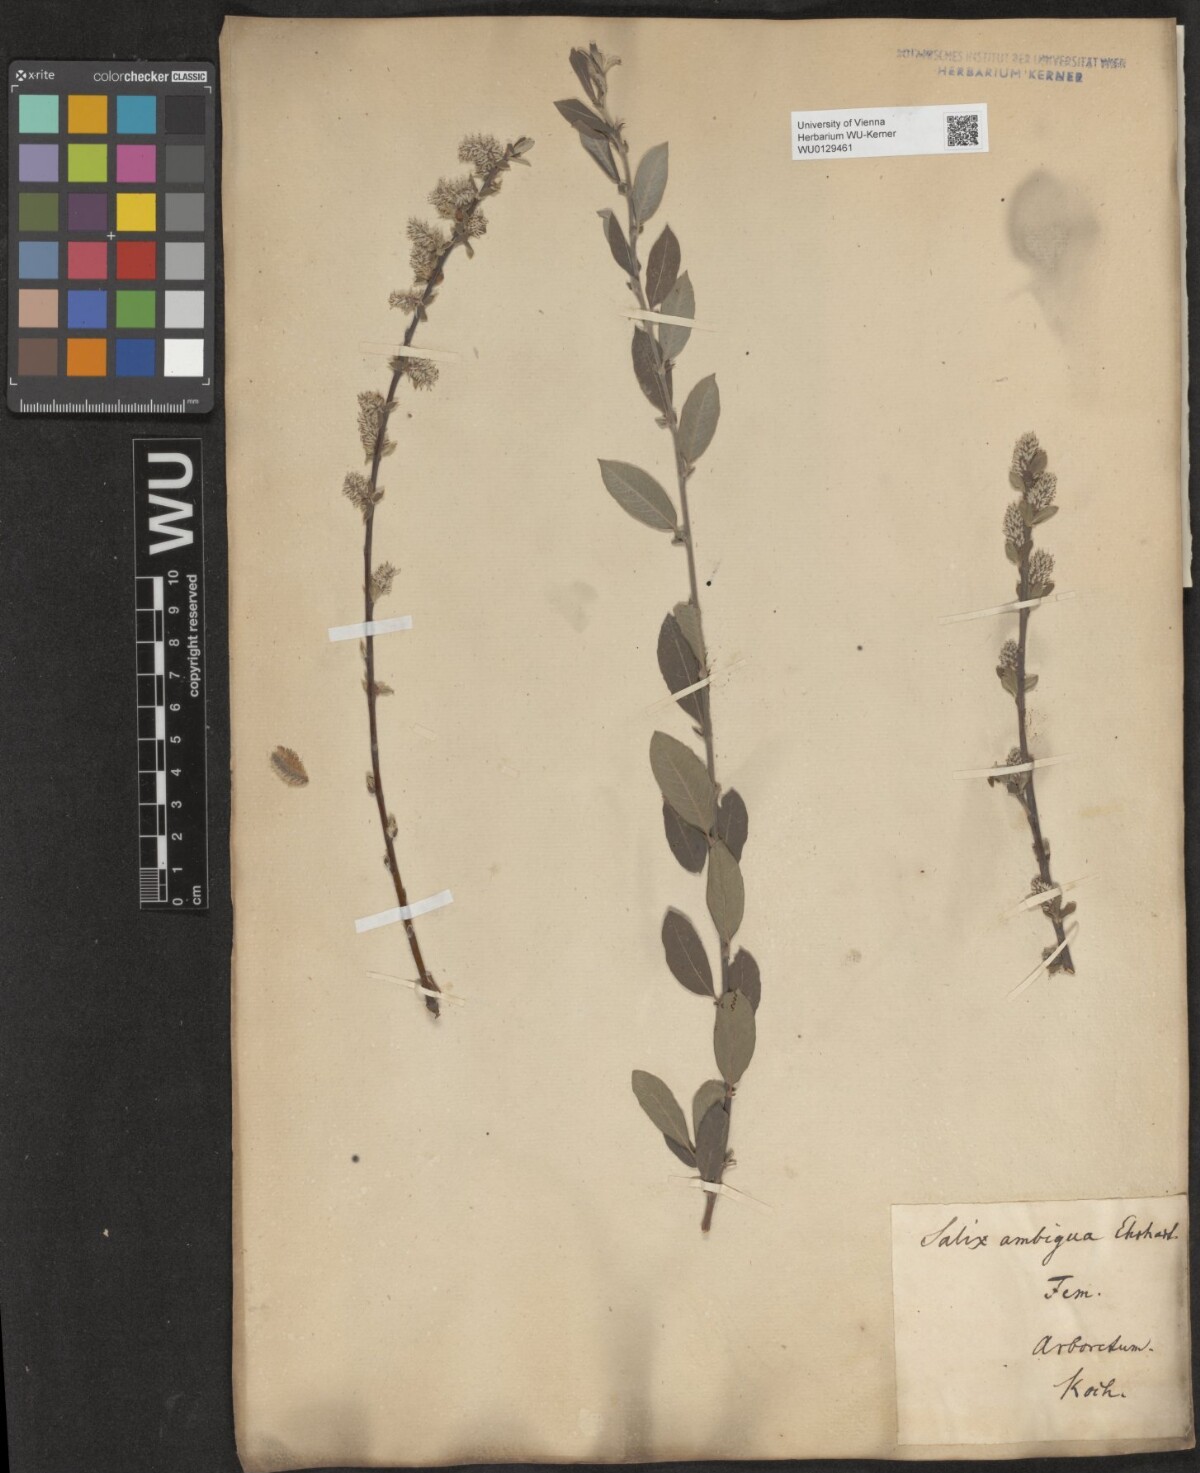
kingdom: Plantae
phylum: Tracheophyta
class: Magnoliopsida
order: Malpighiales
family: Salicaceae
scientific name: Salicaceae
